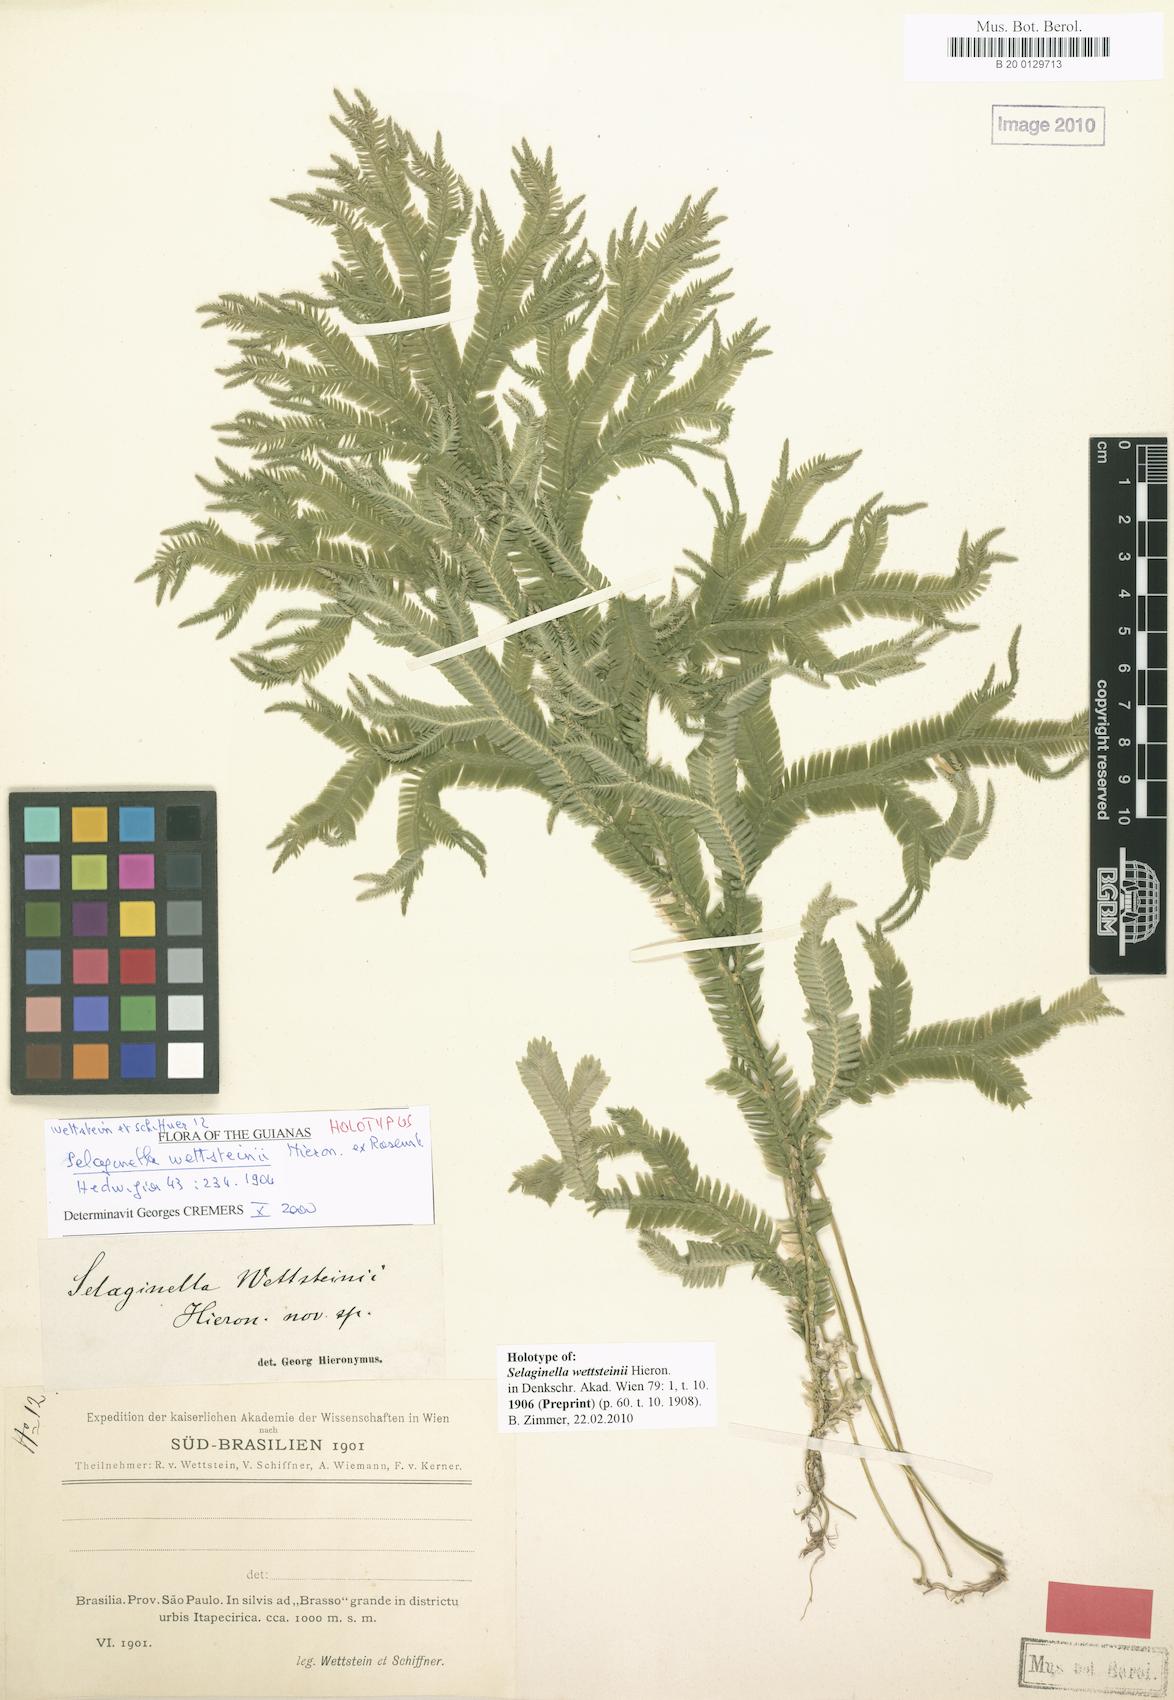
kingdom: Plantae
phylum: Tracheophyta
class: Lycopodiopsida
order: Selaginellales
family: Selaginellaceae
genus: Selaginella
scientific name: Selaginella contigua
